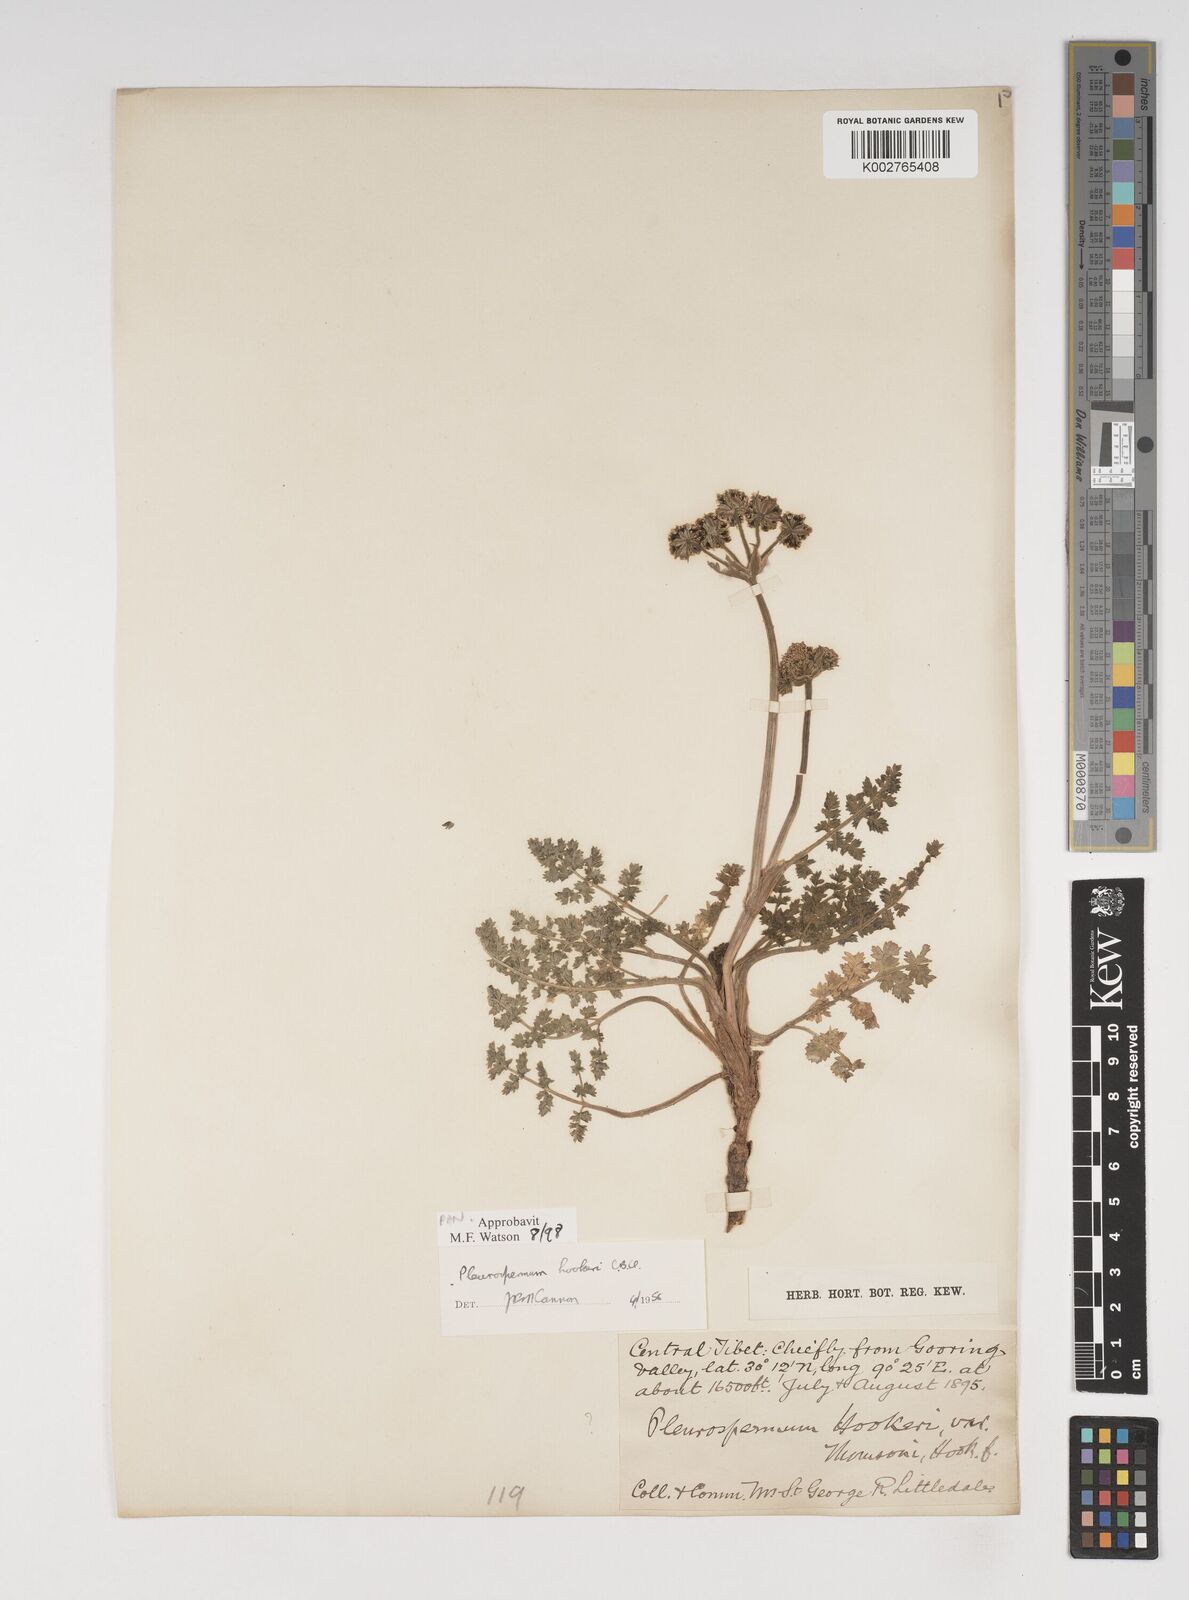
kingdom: Plantae
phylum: Tracheophyta
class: Magnoliopsida
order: Apiales
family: Apiaceae
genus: Pleurospermum
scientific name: Pleurospermum hookeri
